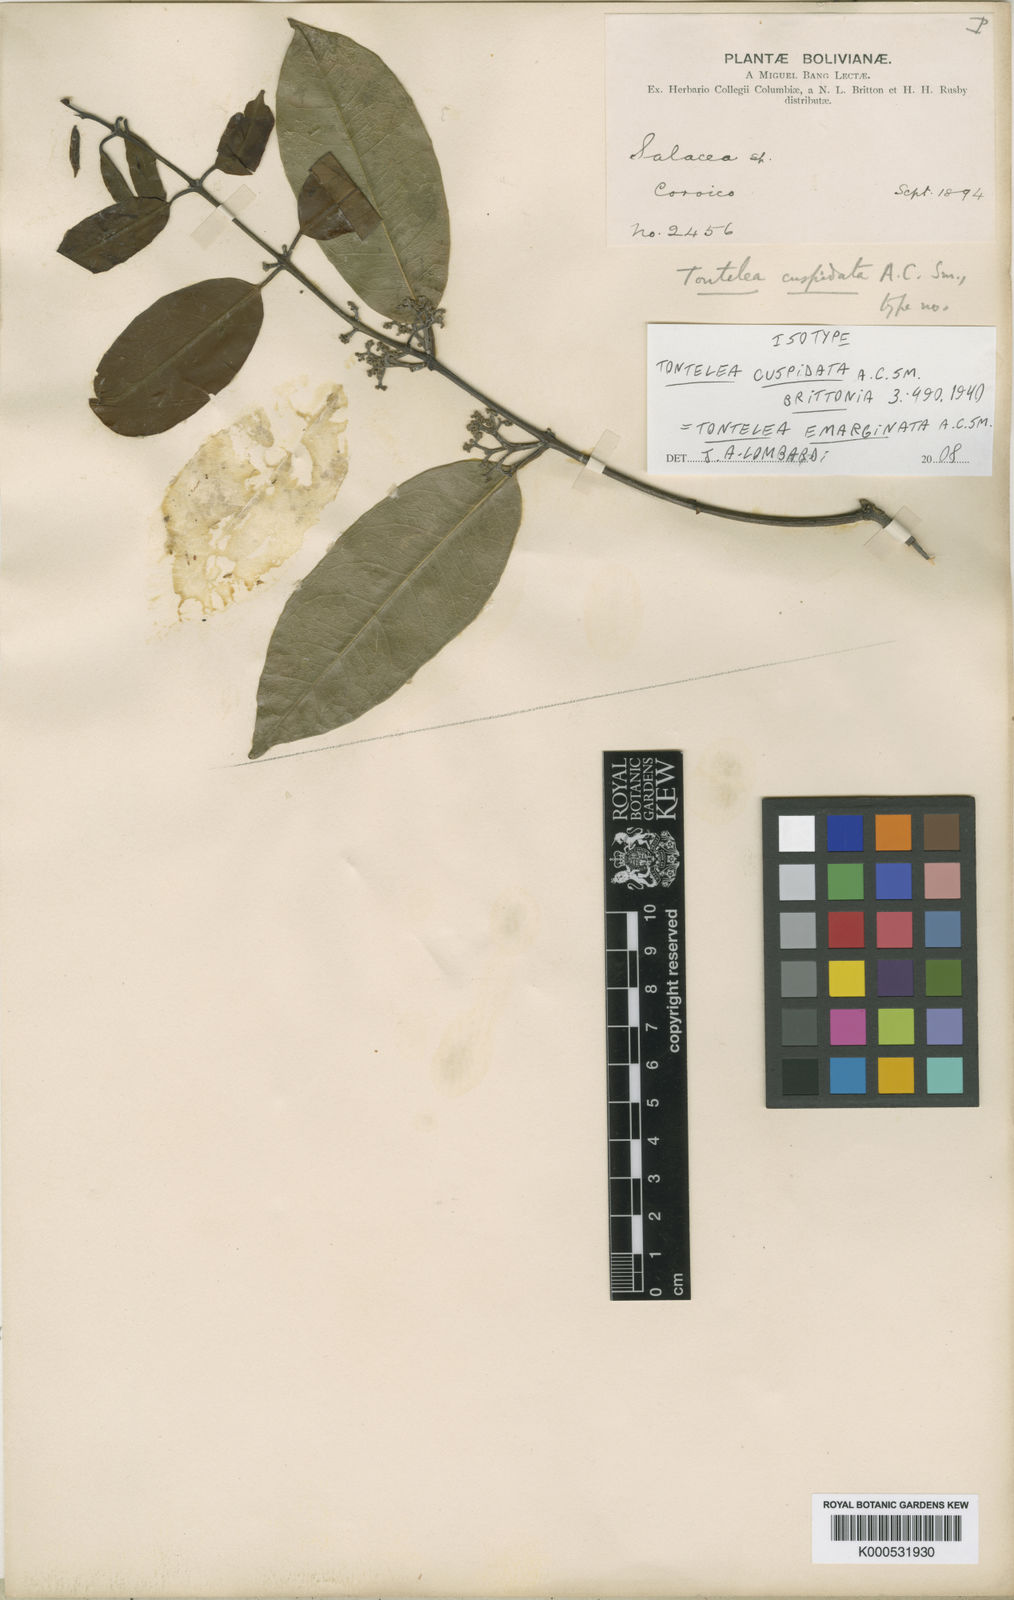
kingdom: Plantae
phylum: Tracheophyta
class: Magnoliopsida
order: Celastrales
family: Celastraceae
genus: Tontelea
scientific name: Tontelea emarginata
